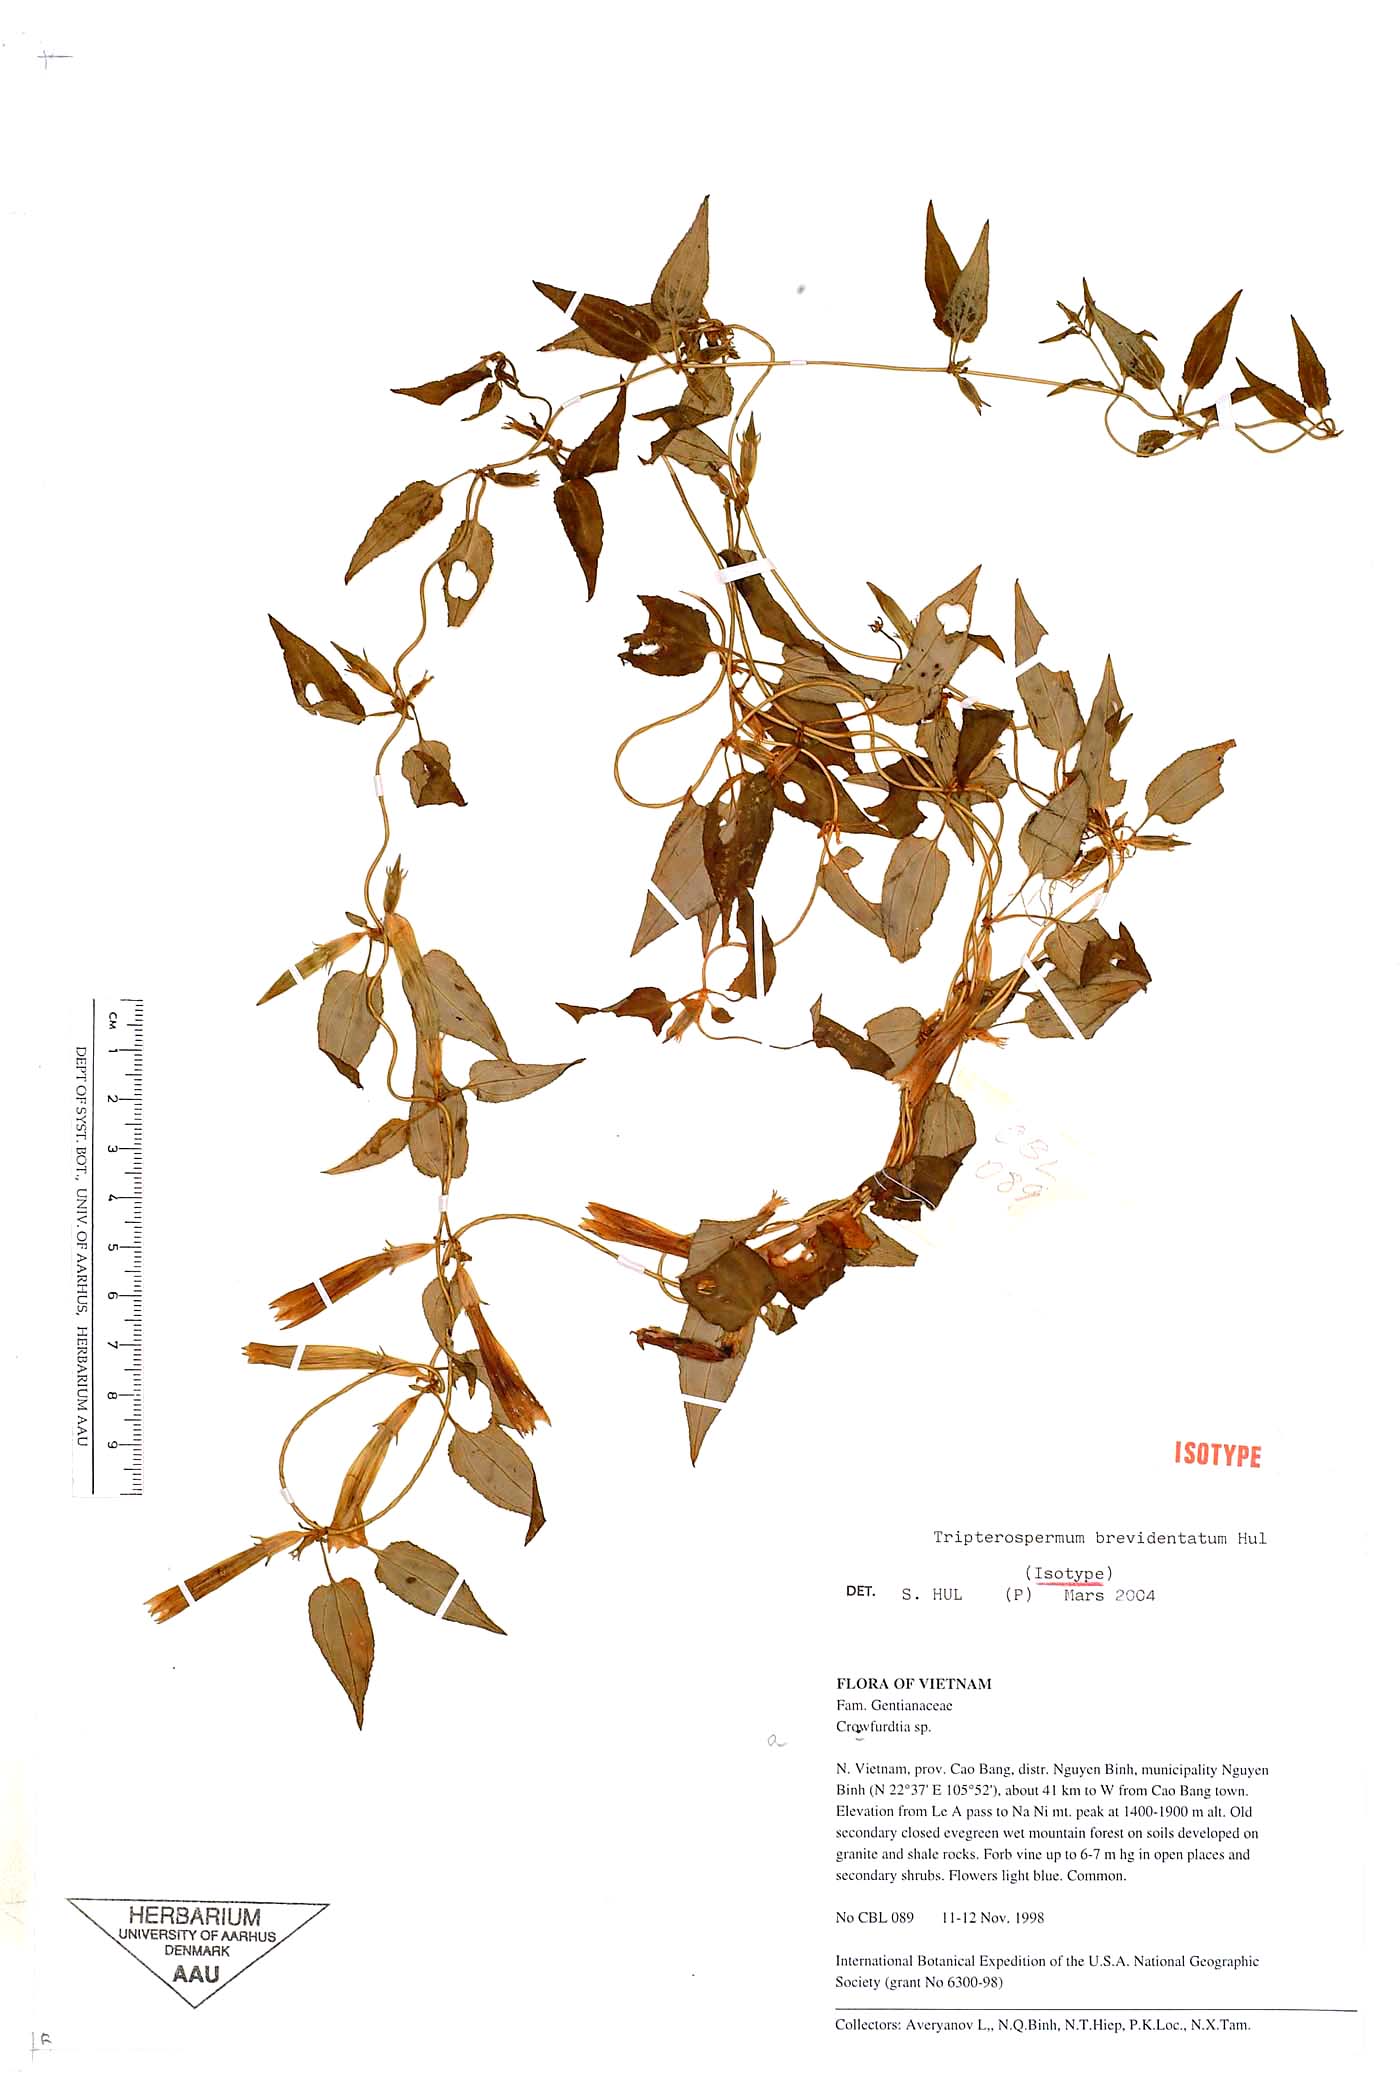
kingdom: Plantae
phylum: Tracheophyta
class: Magnoliopsida
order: Gentianales
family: Gentianaceae
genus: Tripterospermum
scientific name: Tripterospermum brevidentatum
